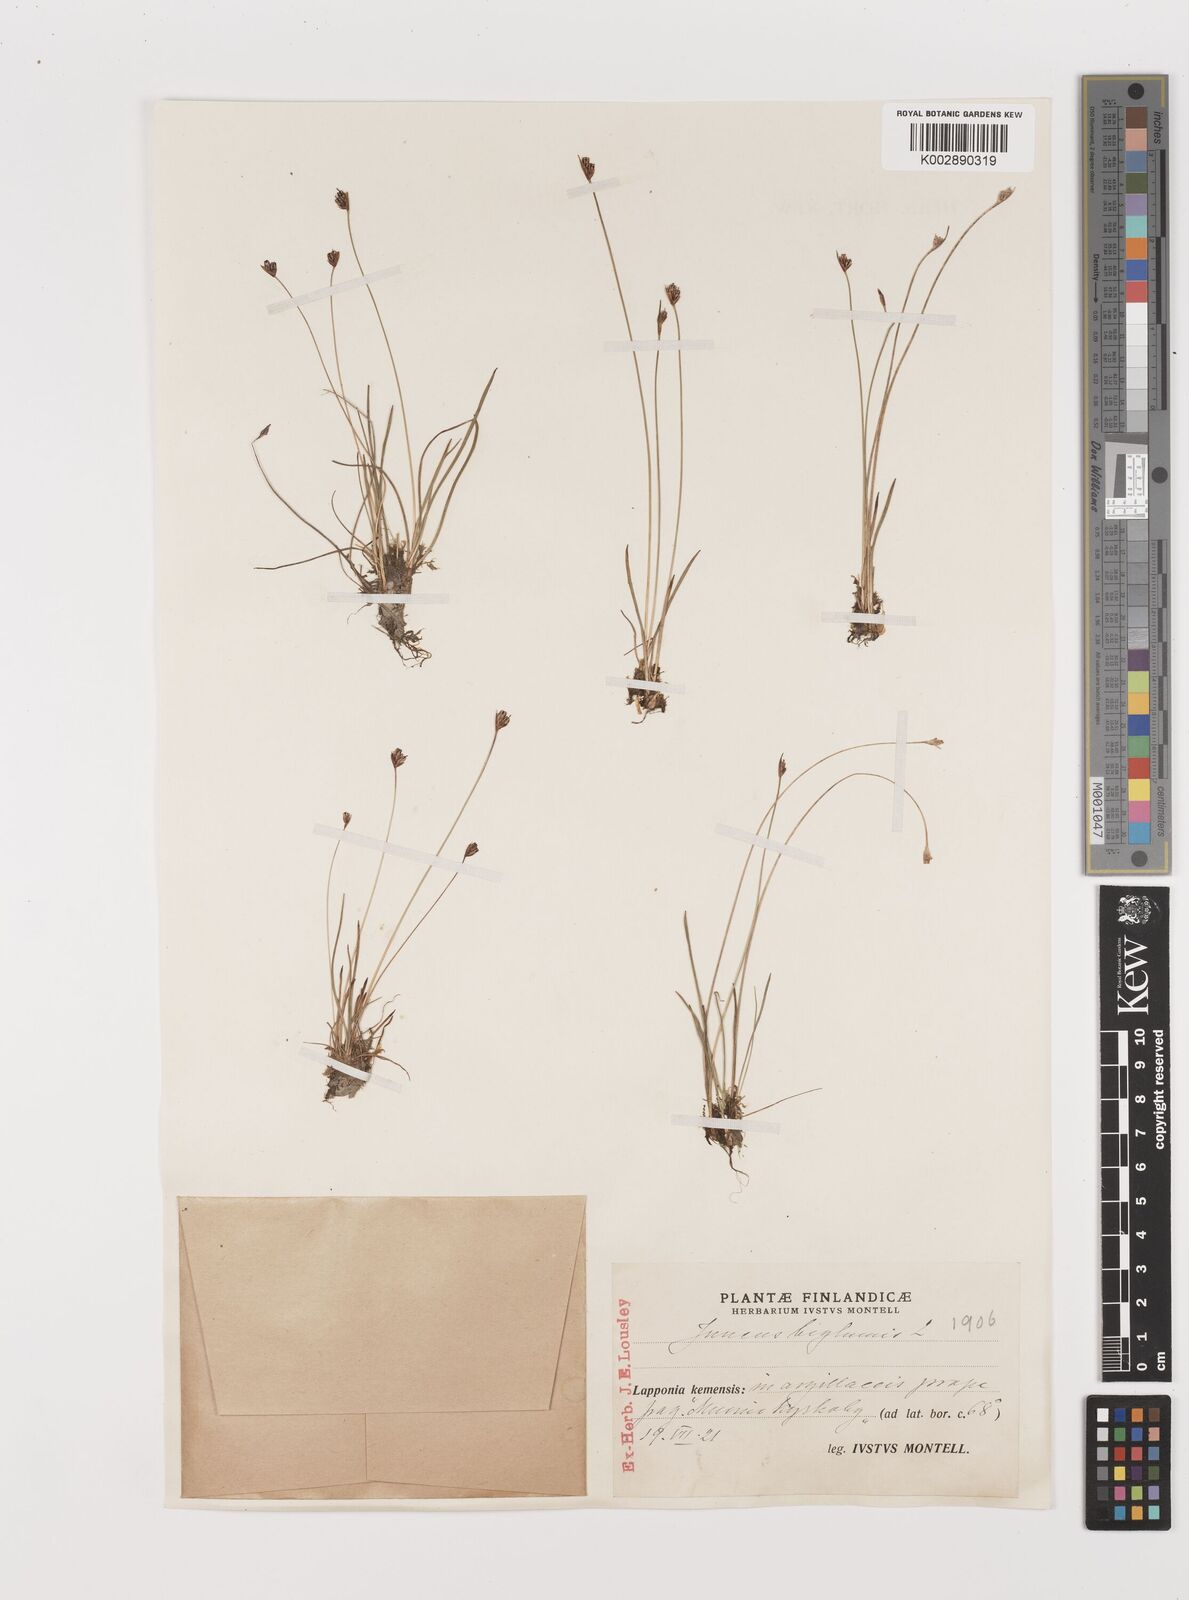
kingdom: Plantae
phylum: Tracheophyta
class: Liliopsida
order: Poales
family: Juncaceae
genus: Juncus
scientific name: Juncus biglumis
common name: Two-flowered rush
